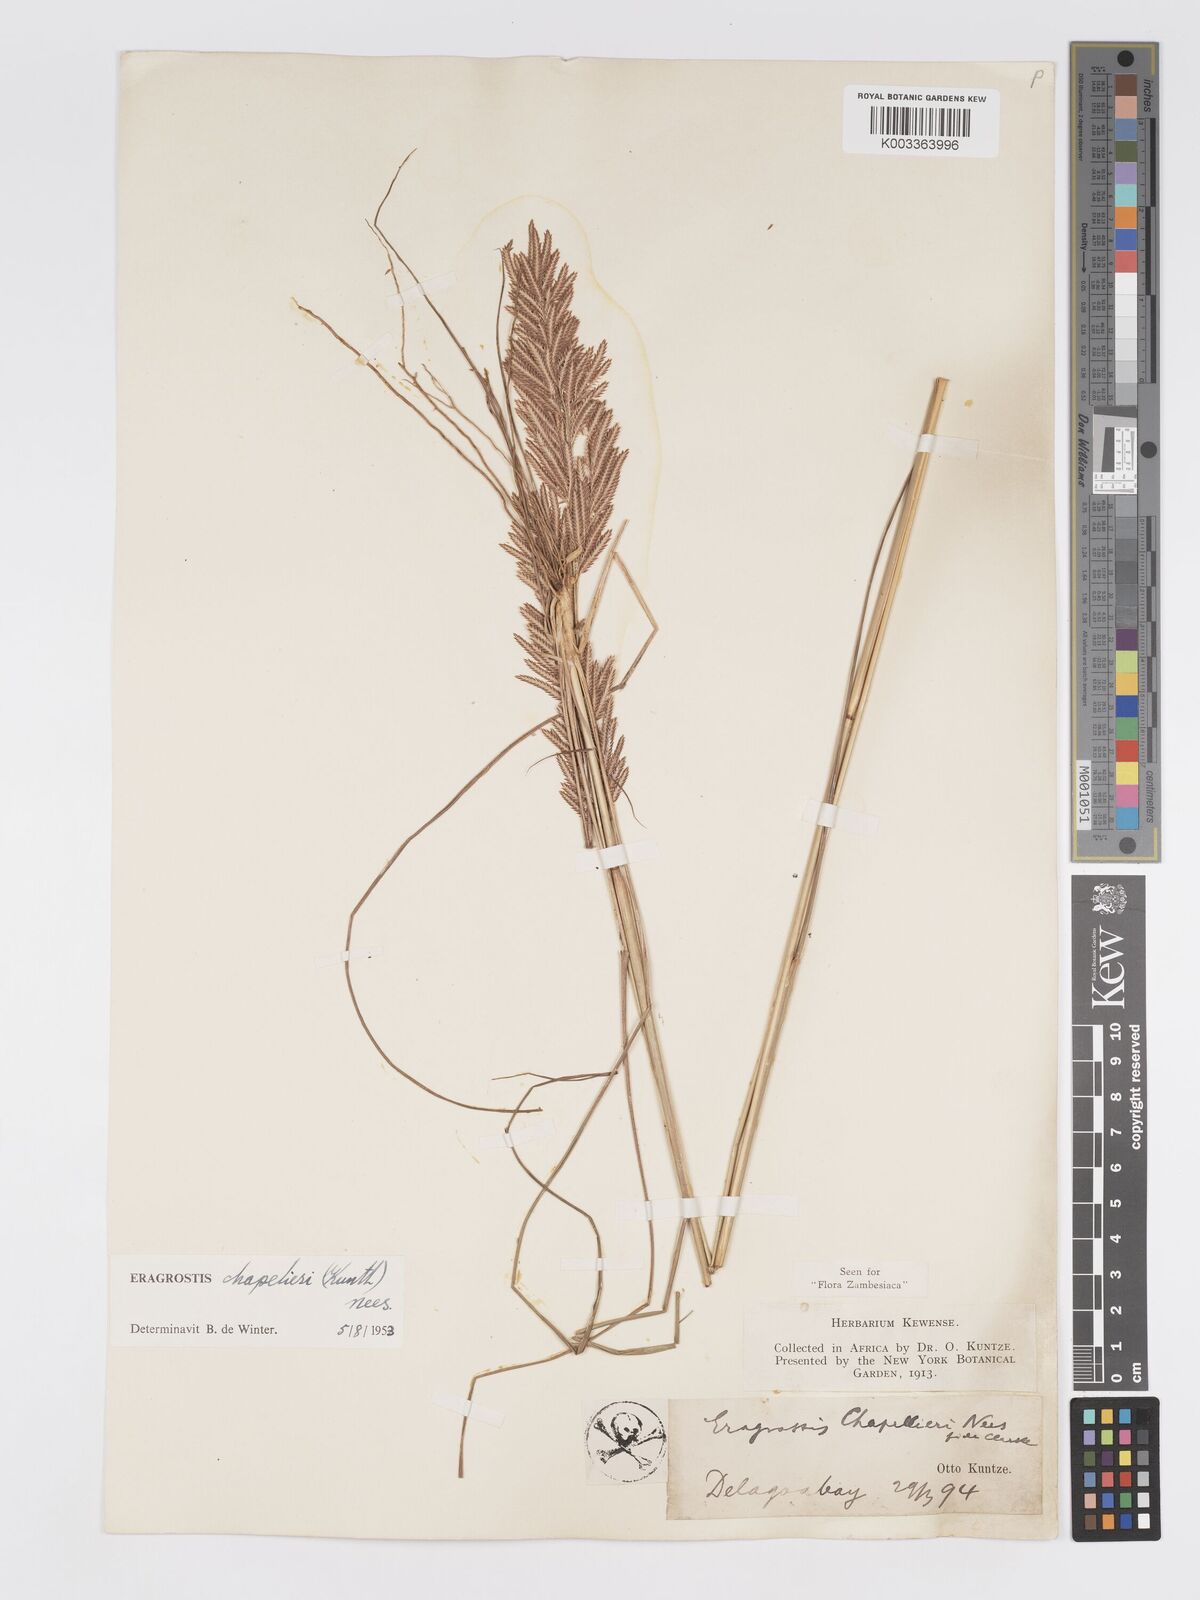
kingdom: Plantae
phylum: Tracheophyta
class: Liliopsida
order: Poales
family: Poaceae
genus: Eragrostis
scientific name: Eragrostis chapelieri
